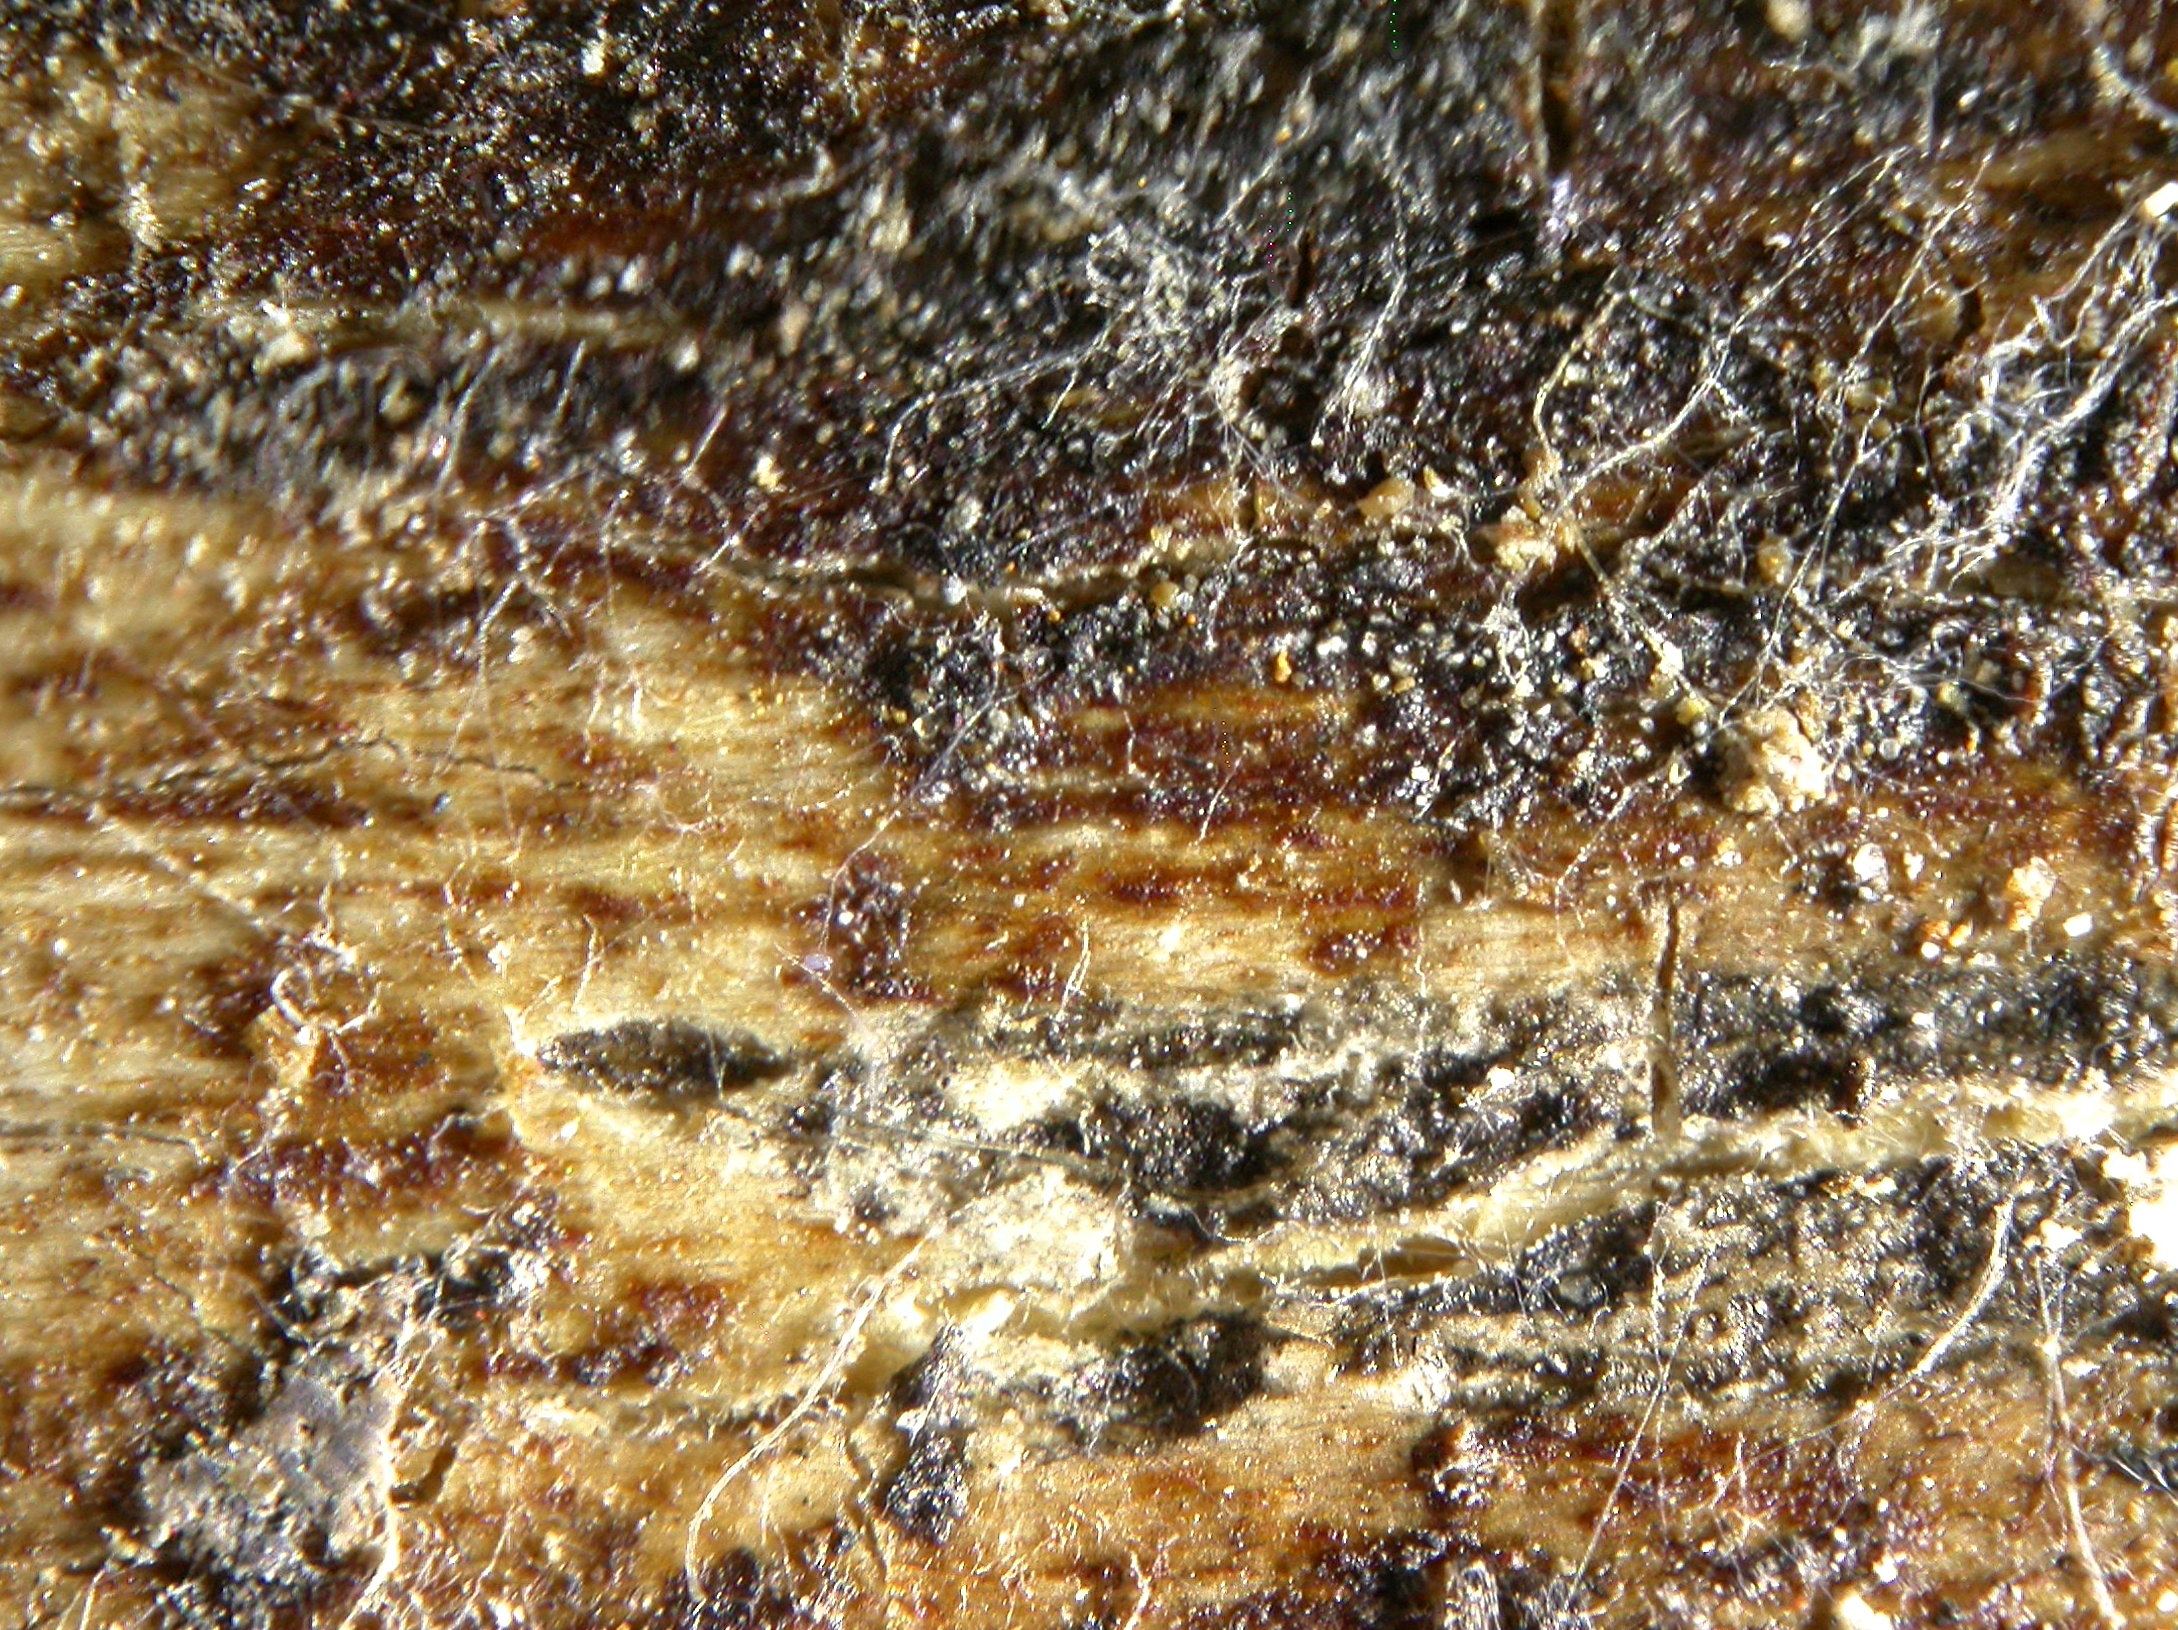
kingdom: Fungi
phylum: Ascomycota
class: Leotiomycetes
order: Helotiales
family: Cenangiaceae
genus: Cenangium
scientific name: Cenangium pallidoflavescens
